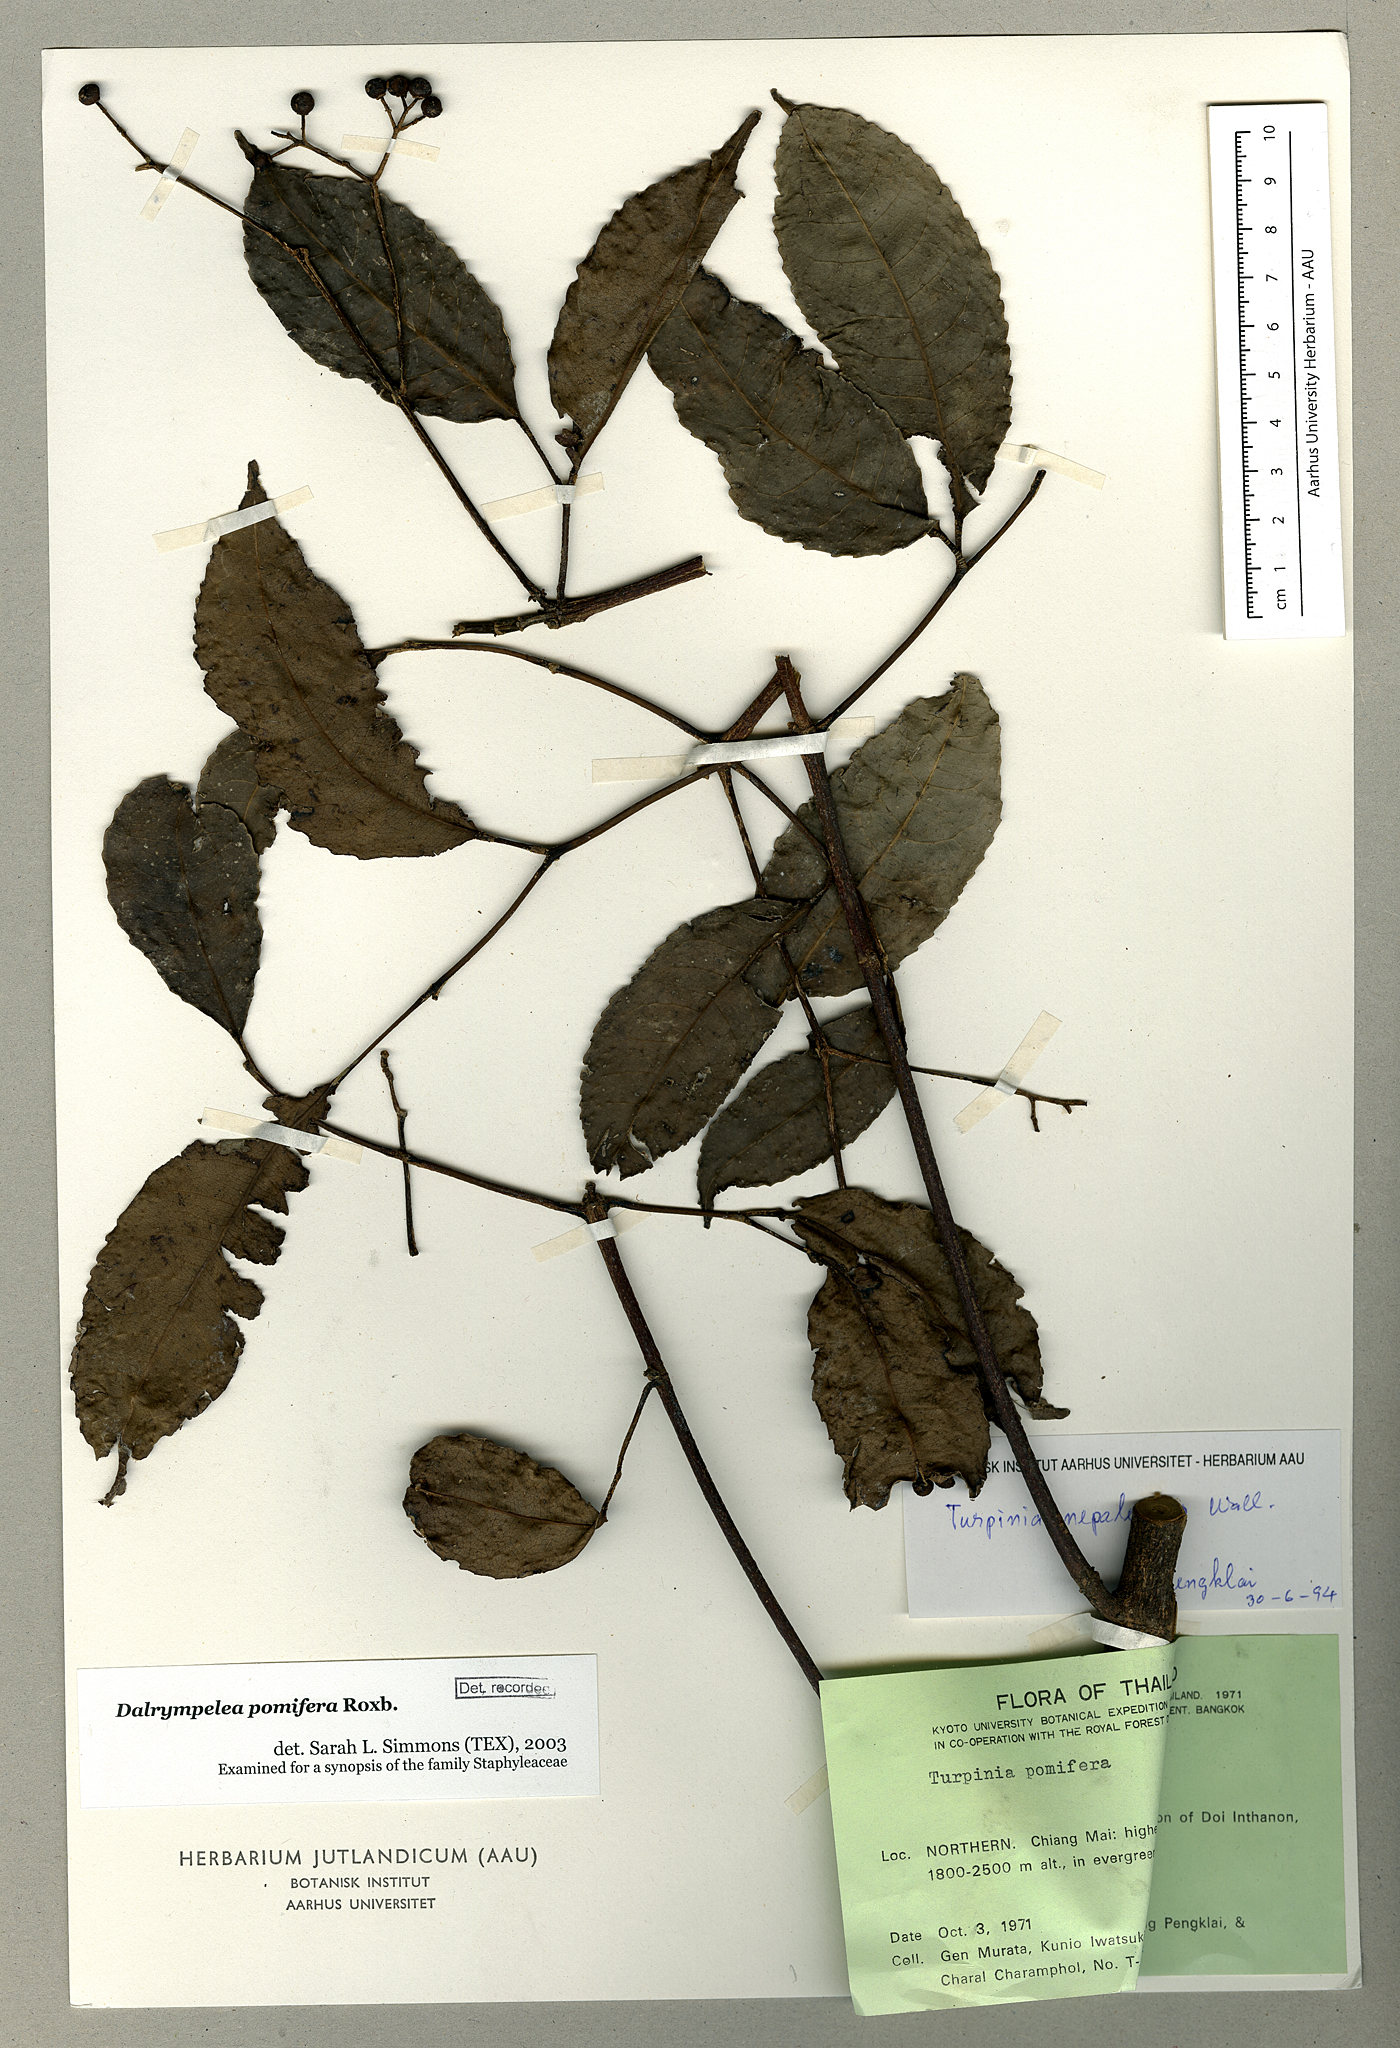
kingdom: Plantae
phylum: Tracheophyta
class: Magnoliopsida
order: Crossosomatales
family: Staphyleaceae
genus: Turpinia
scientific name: Turpinia cochinchinensis
